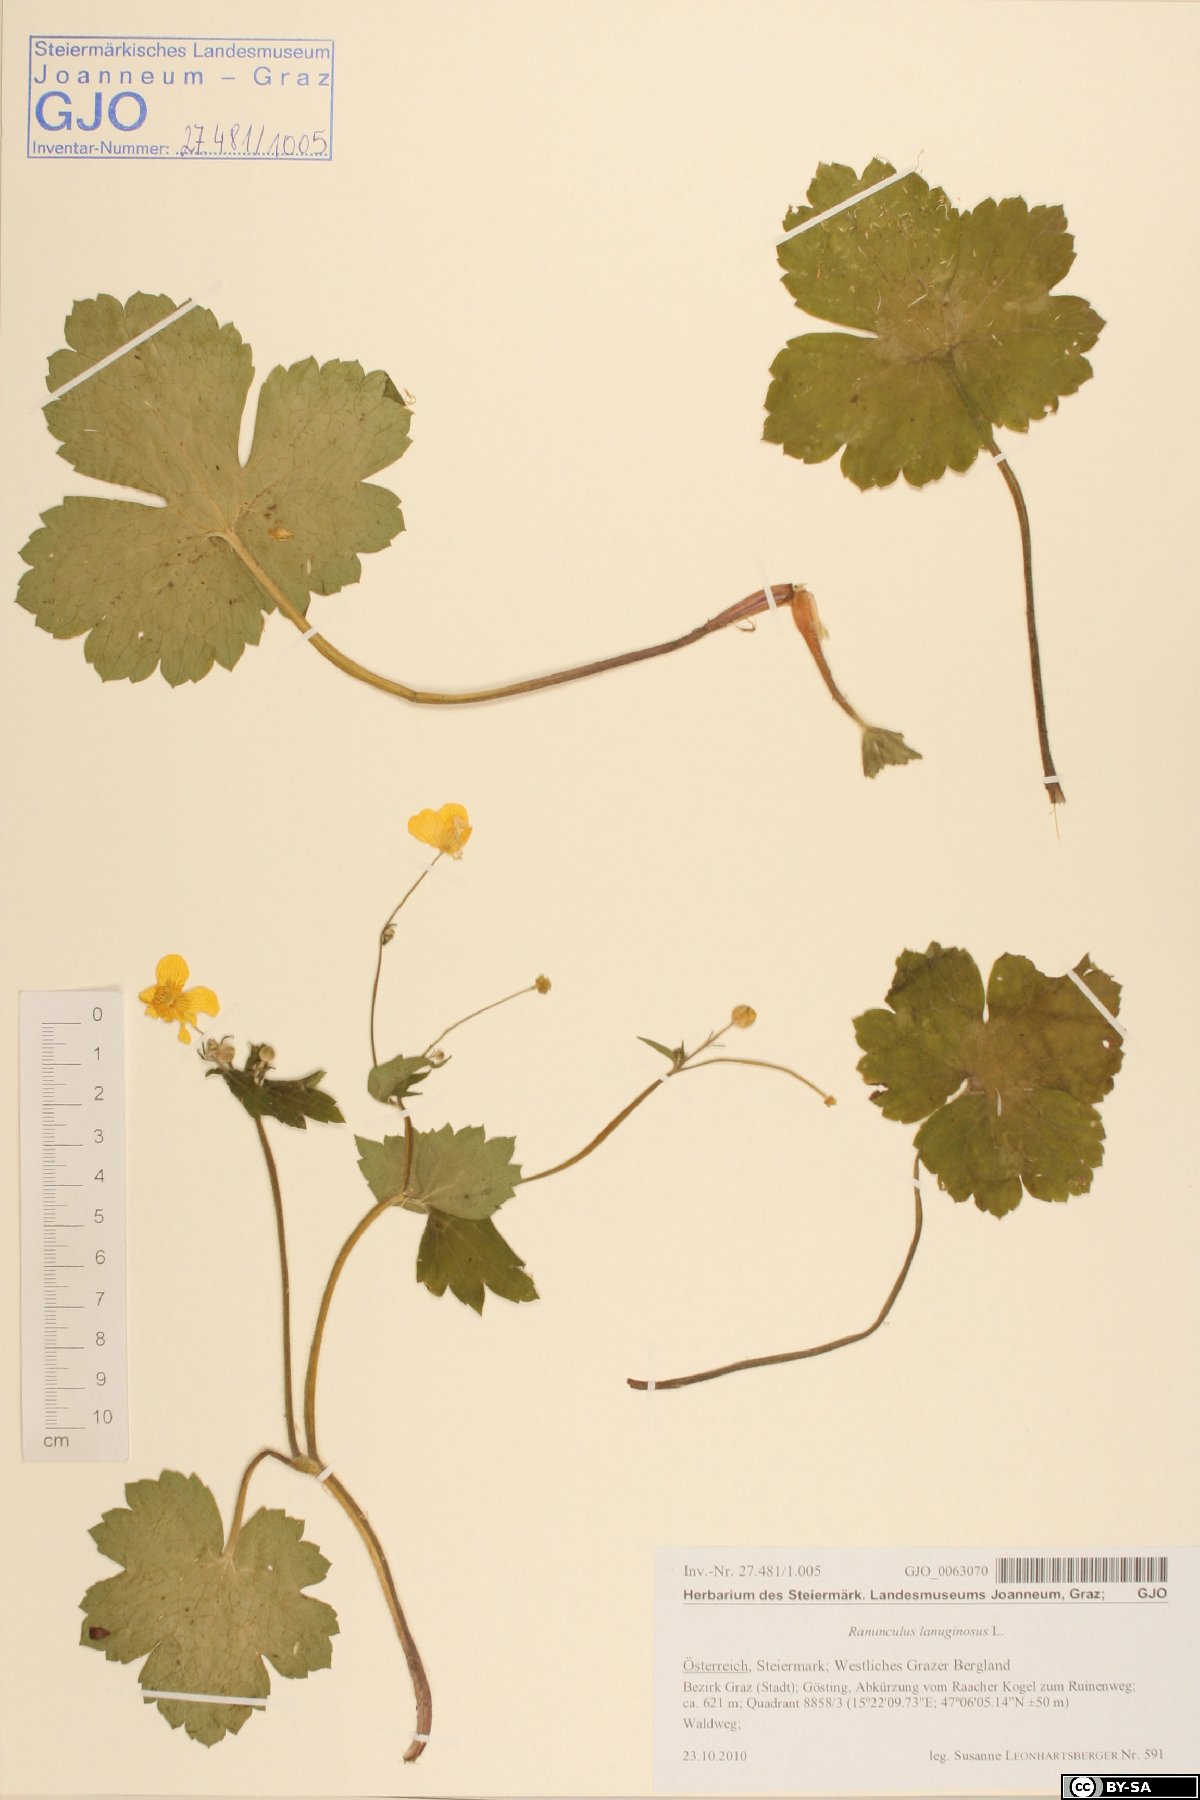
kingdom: Plantae
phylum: Tracheophyta
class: Magnoliopsida
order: Ranunculales
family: Ranunculaceae
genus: Ranunculus
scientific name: Ranunculus lanuginosus
